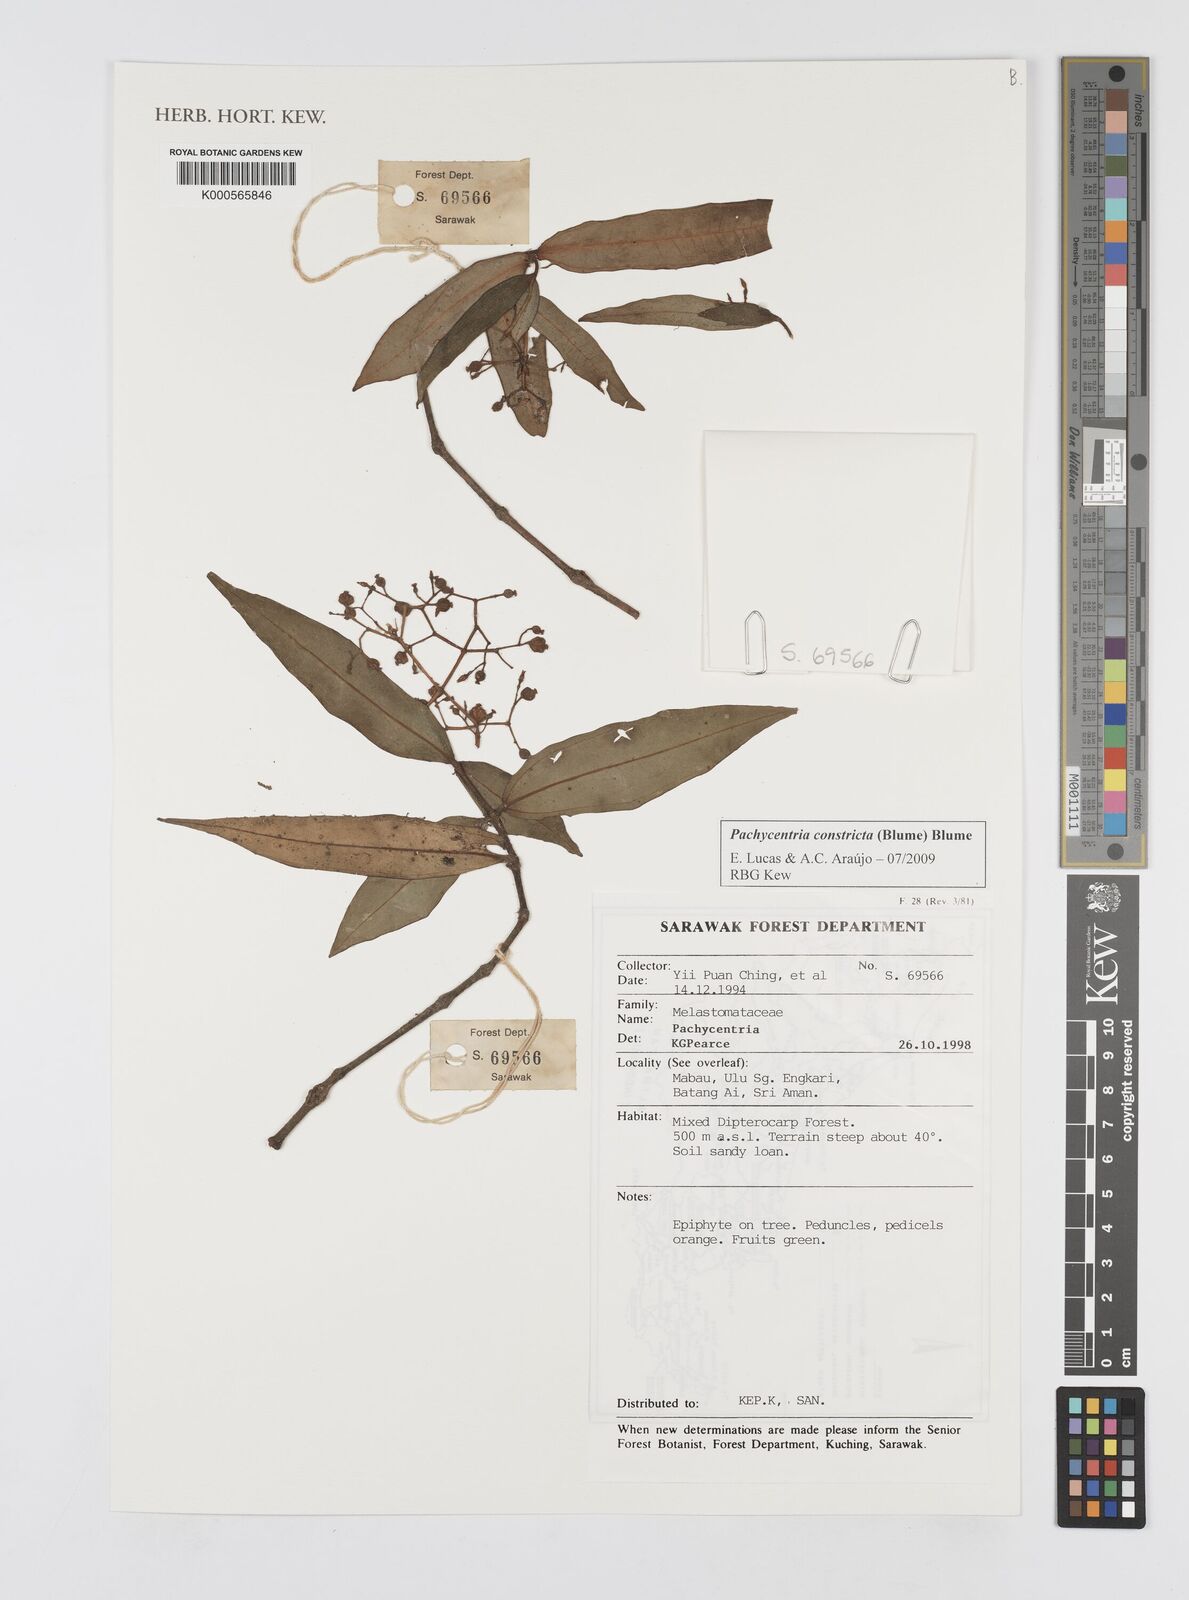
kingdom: Plantae
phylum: Tracheophyta
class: Magnoliopsida
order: Myrtales
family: Melastomataceae
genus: Pachycentria
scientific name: Pachycentria constricta
